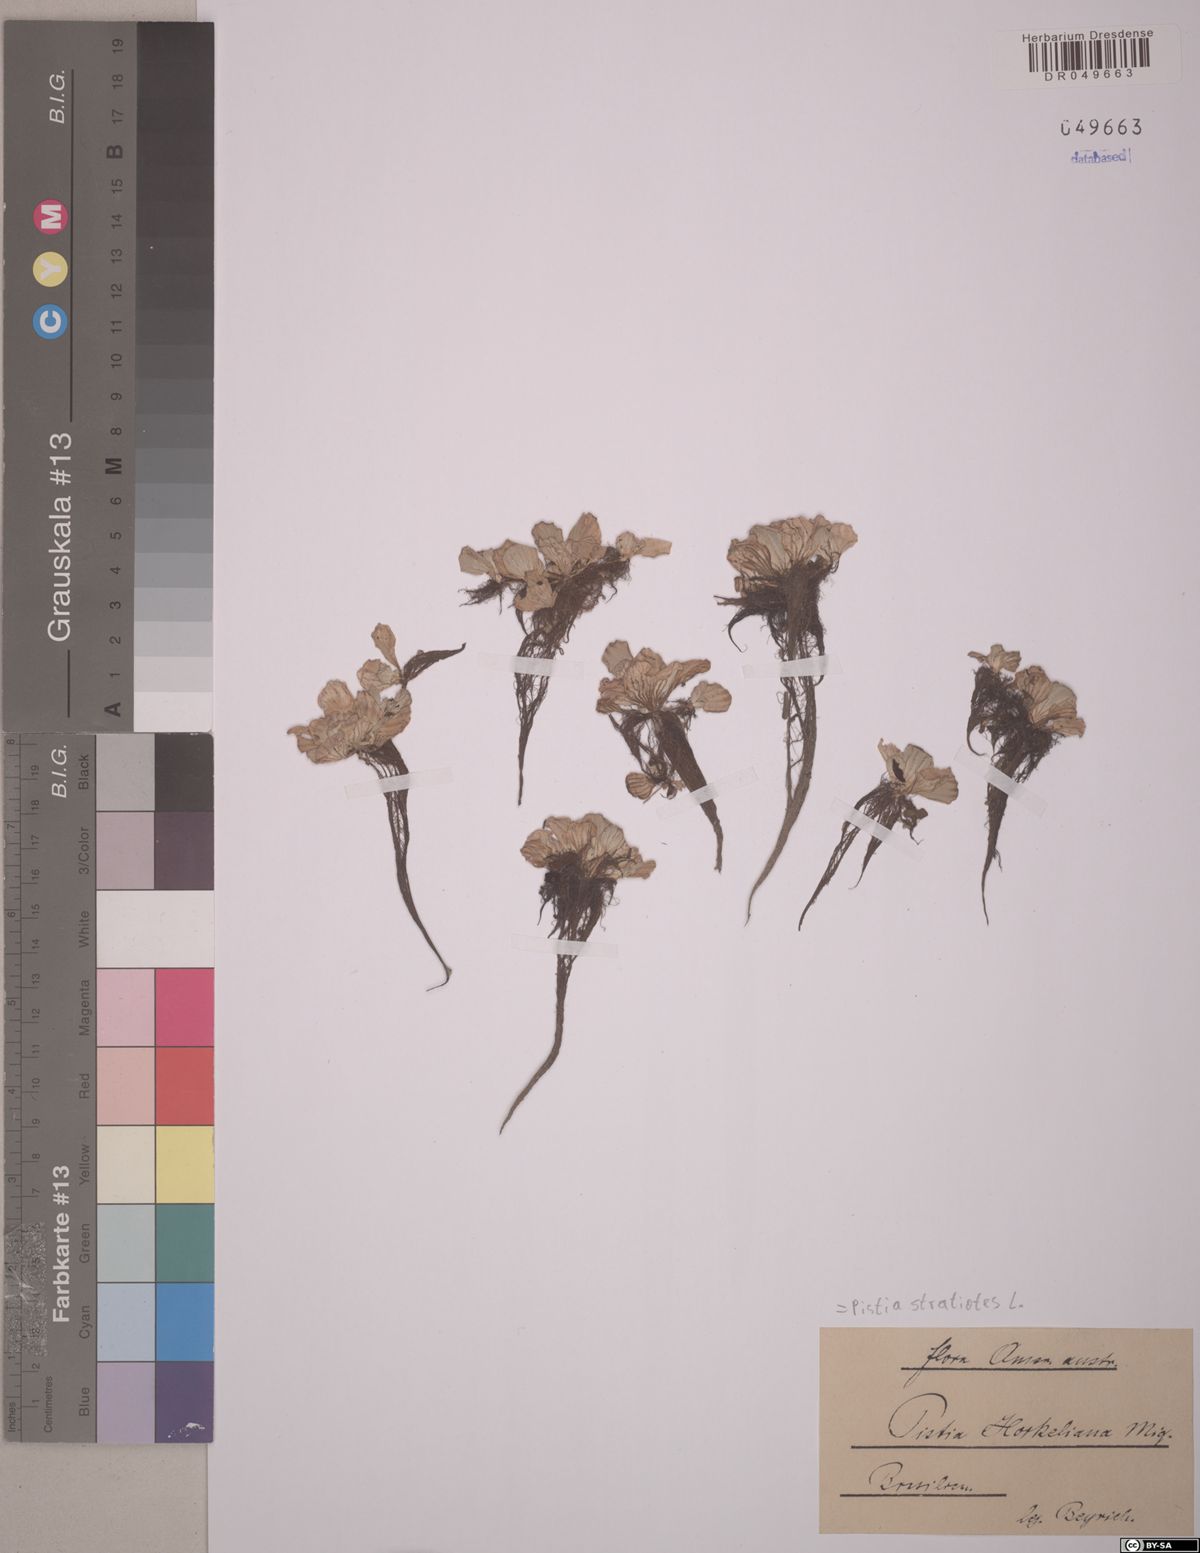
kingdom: Plantae
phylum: Tracheophyta
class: Liliopsida
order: Alismatales
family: Araceae
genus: Pistia
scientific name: Pistia stratiotes
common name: Water lettuce
